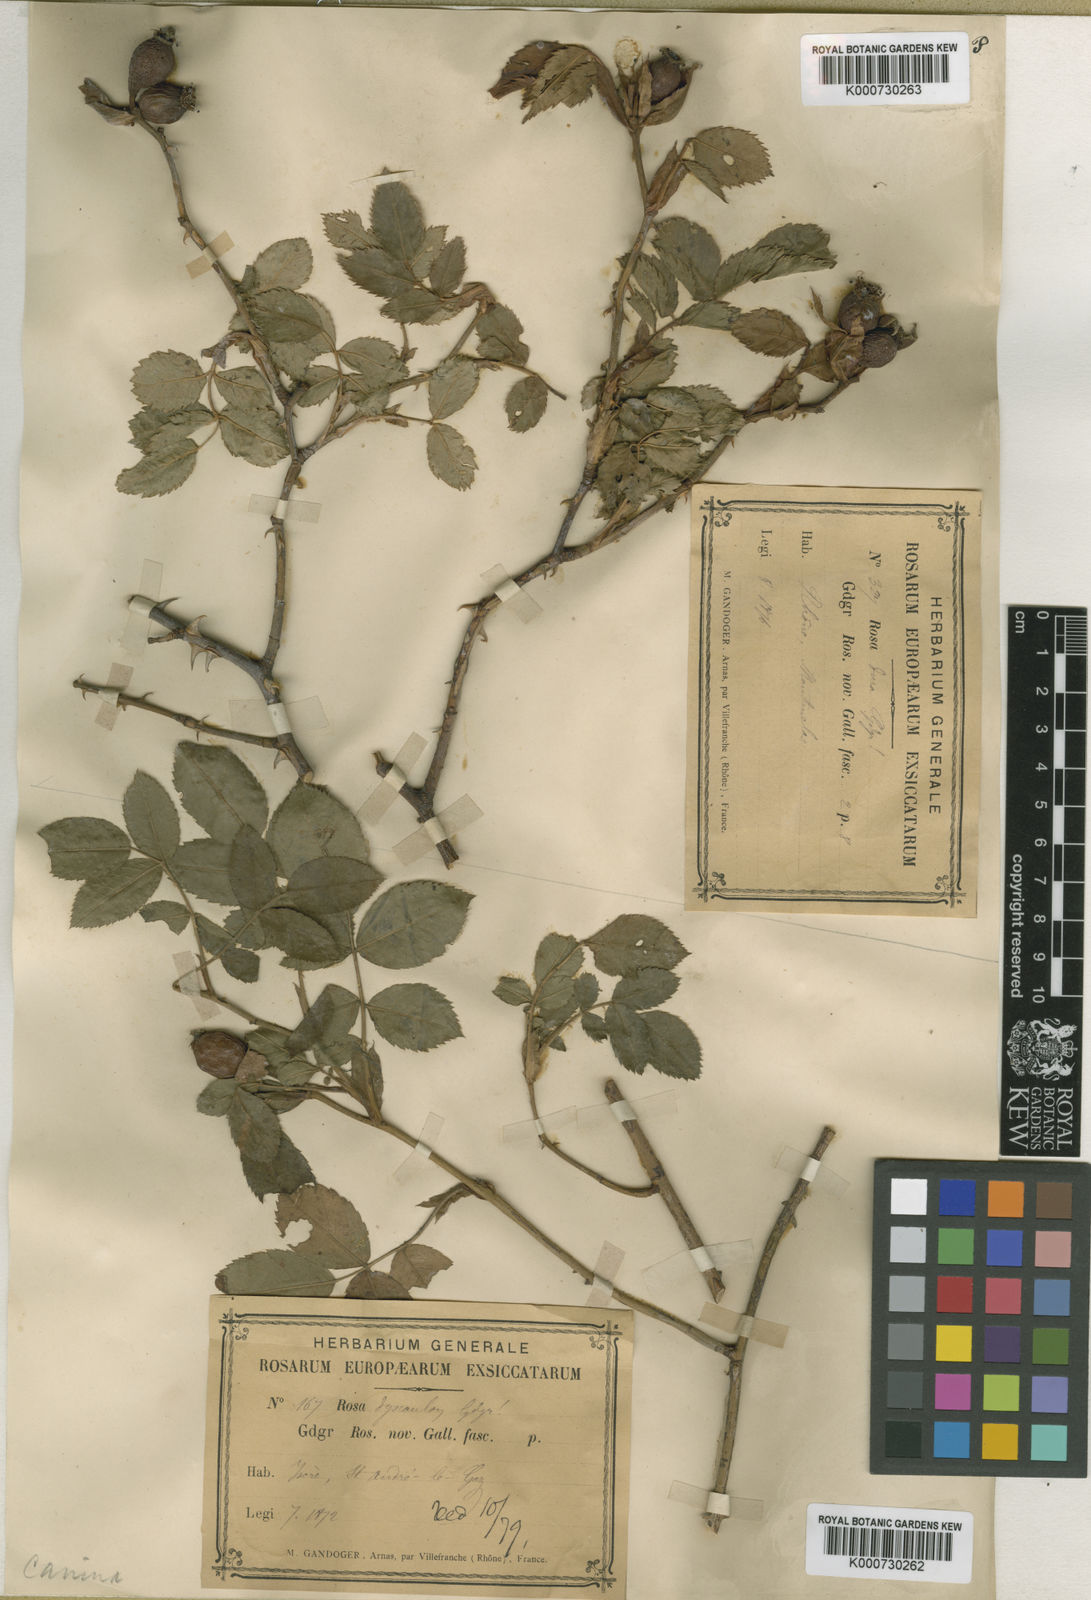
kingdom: Plantae
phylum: Tracheophyta
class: Magnoliopsida
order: Rosales
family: Rosaceae
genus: Rosa
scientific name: Rosa canina
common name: Dog rose
